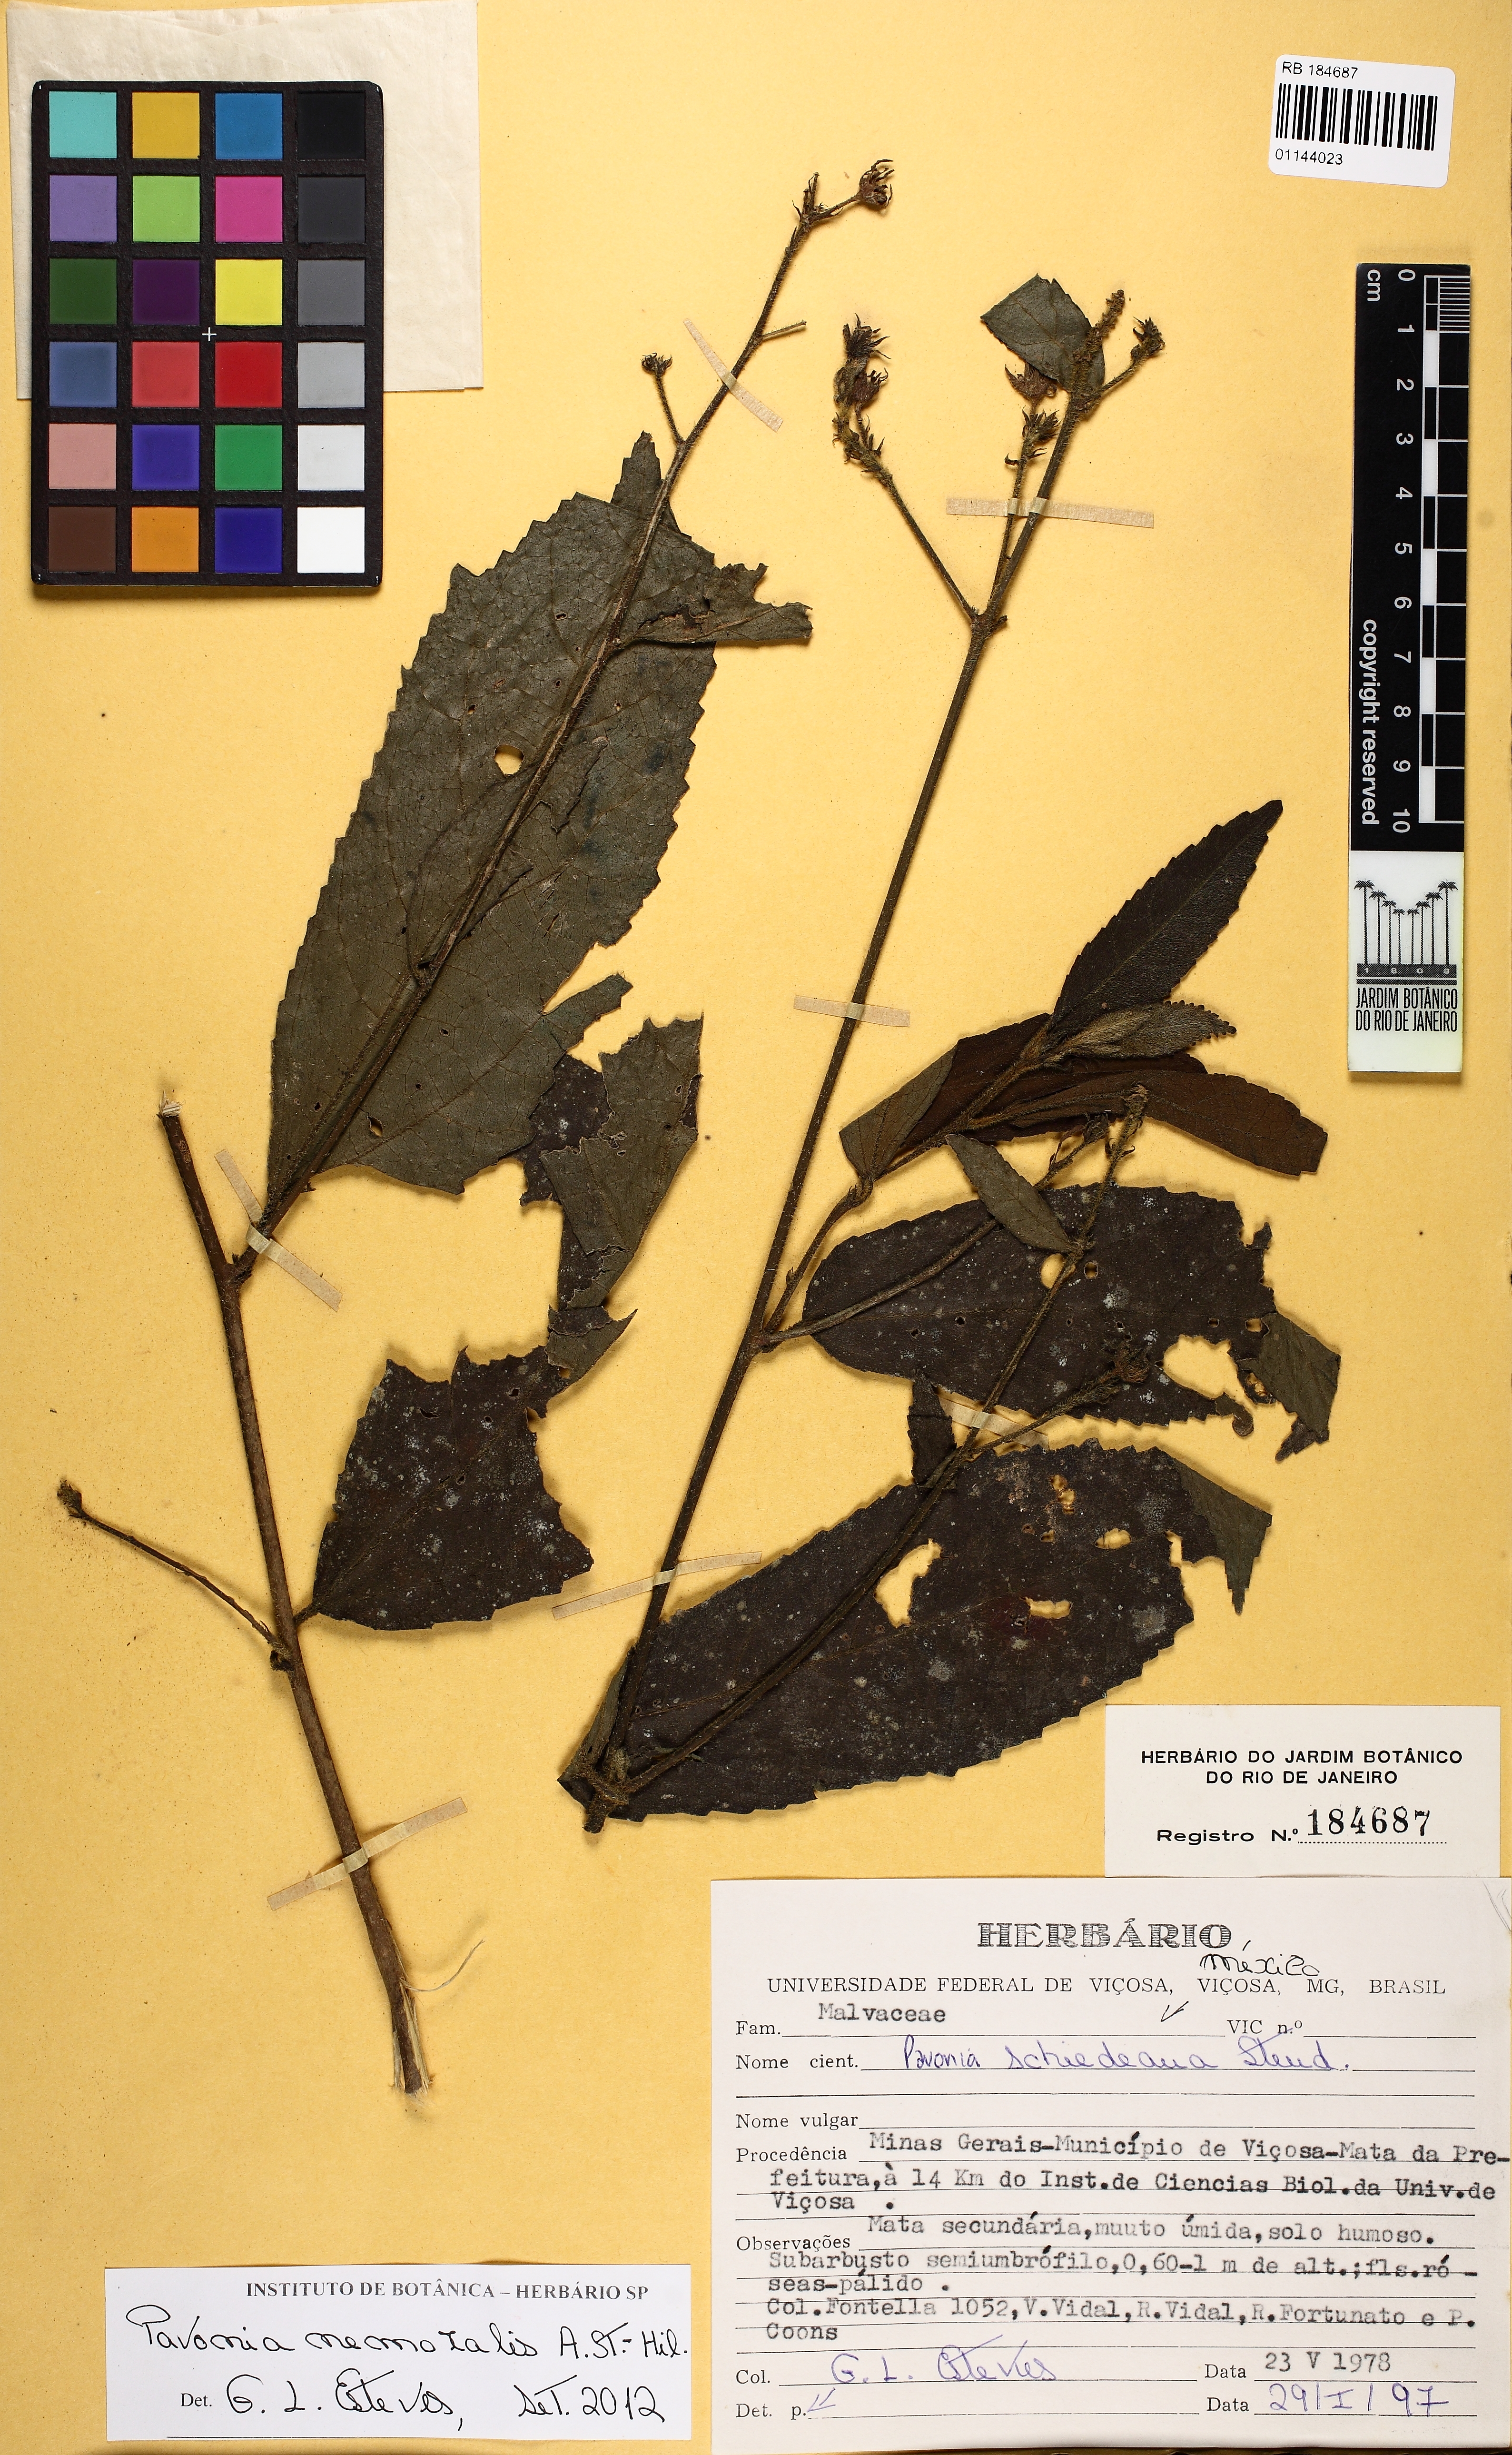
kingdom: Plantae
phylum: Tracheophyta
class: Magnoliopsida
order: Malvales
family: Malvaceae
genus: Pavonia
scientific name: Pavonia schiedeana
